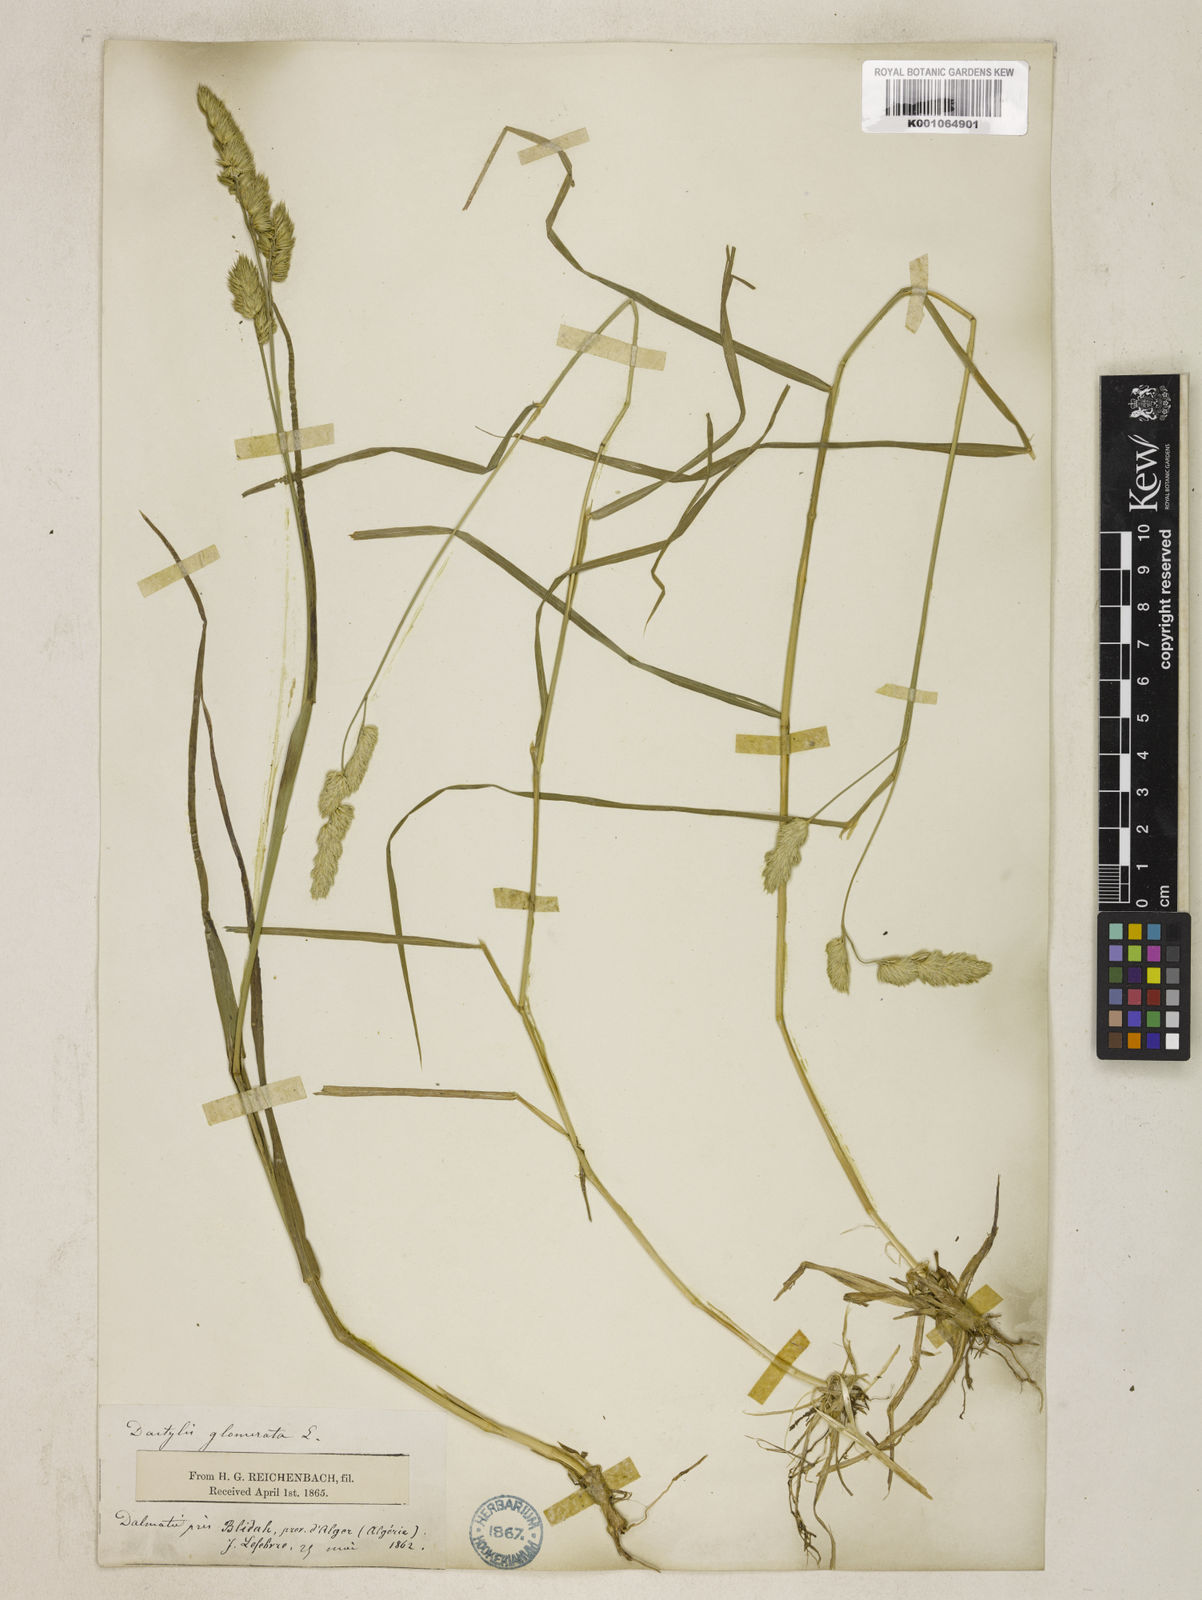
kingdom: Plantae
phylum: Tracheophyta
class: Liliopsida
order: Poales
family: Poaceae
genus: Dactylis
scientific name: Dactylis glomerata
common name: Orchardgrass
